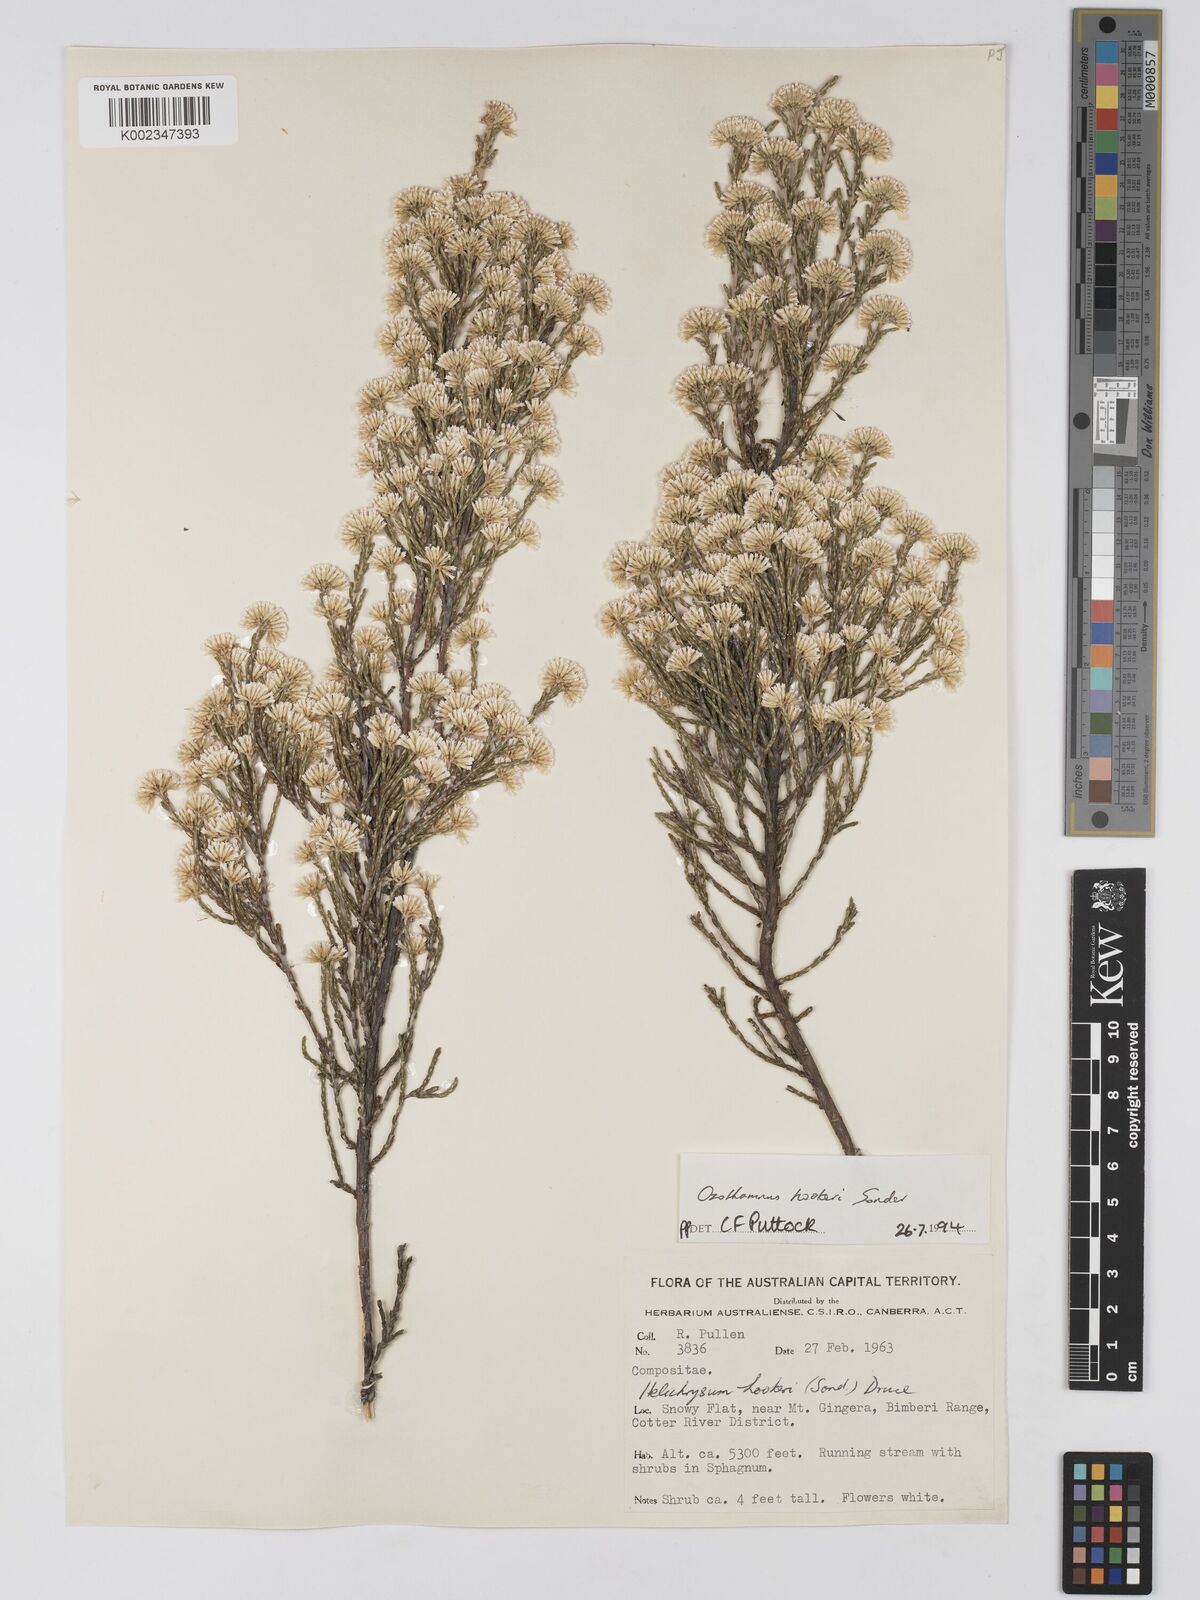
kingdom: Plantae
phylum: Tracheophyta
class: Magnoliopsida
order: Asterales
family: Asteraceae
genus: Ozothamnus
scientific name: Ozothamnus hookeri
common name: Kerosene-bush
